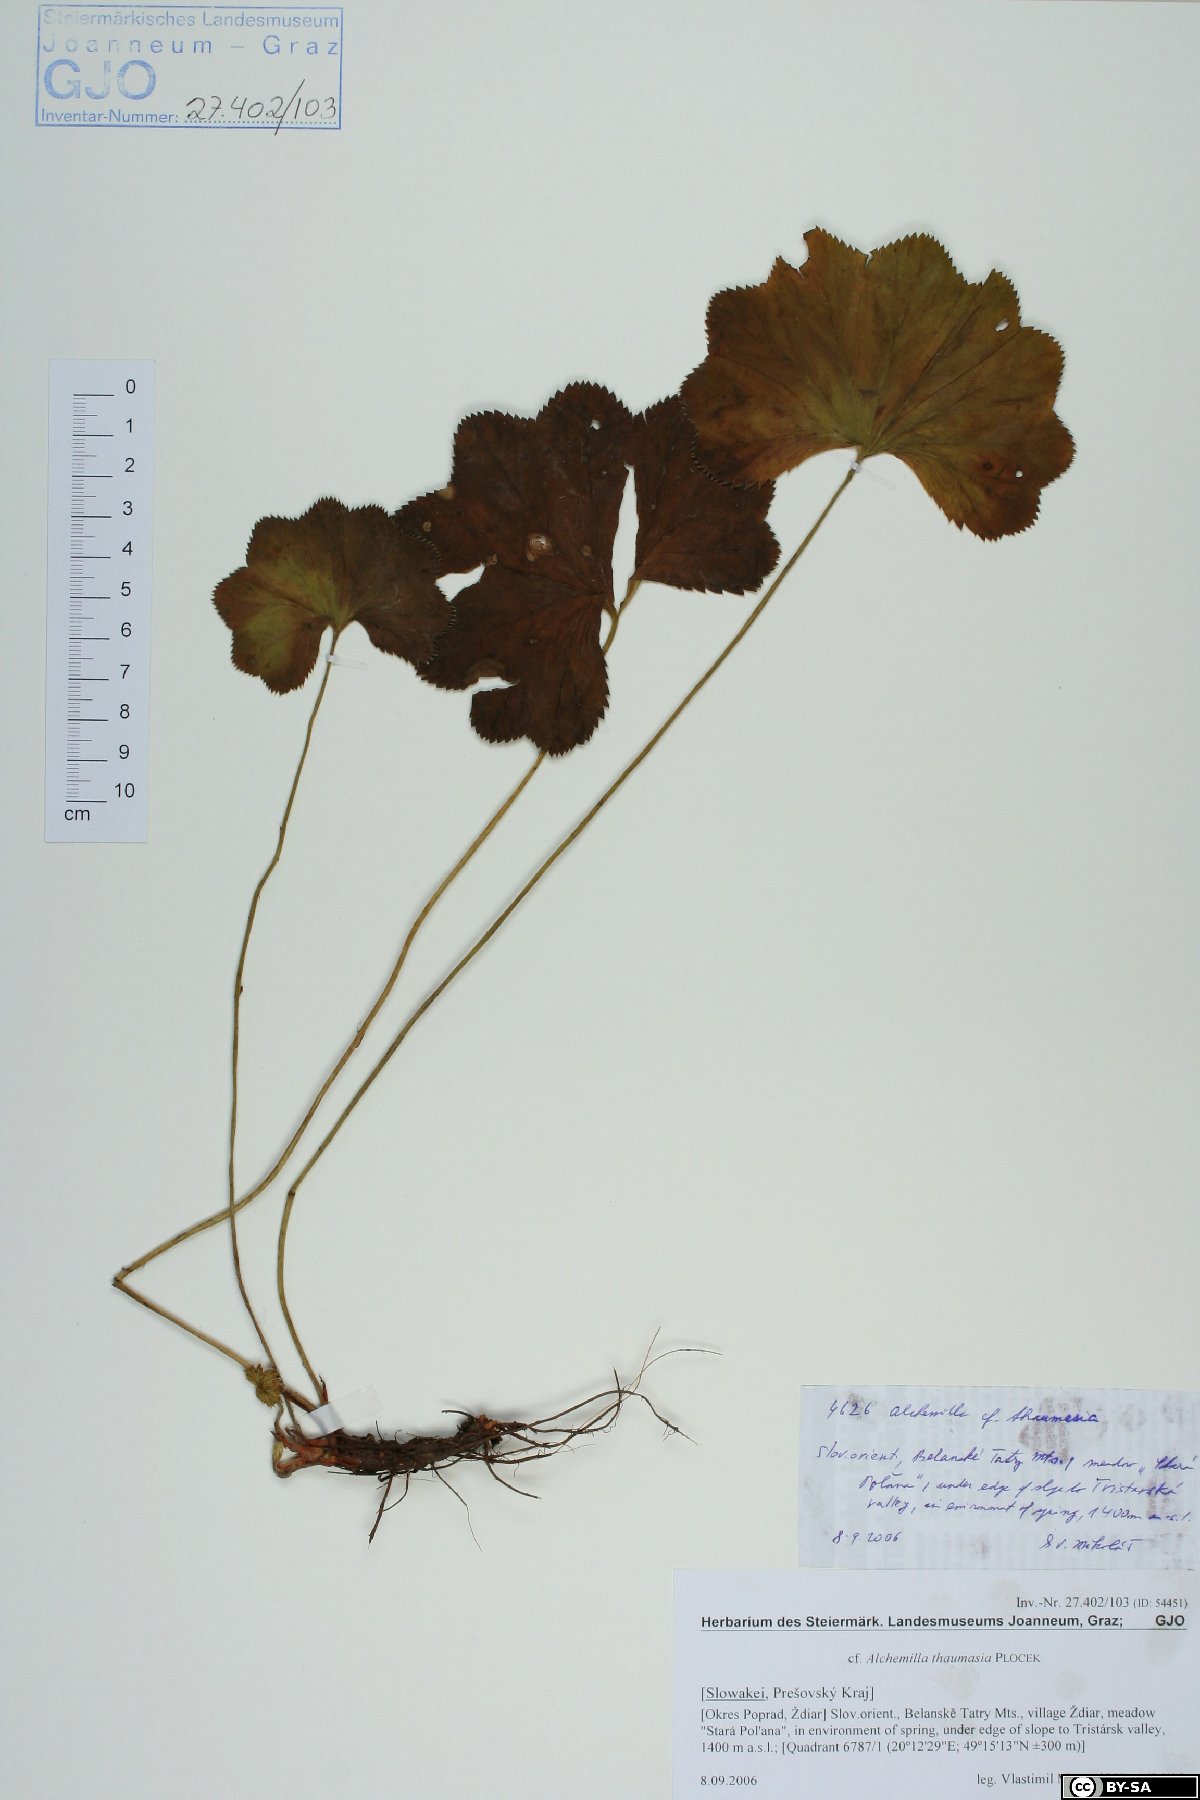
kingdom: Plantae
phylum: Tracheophyta
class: Magnoliopsida
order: Rosales
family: Rosaceae
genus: Alchemilla
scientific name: Alchemilla thaumasia
